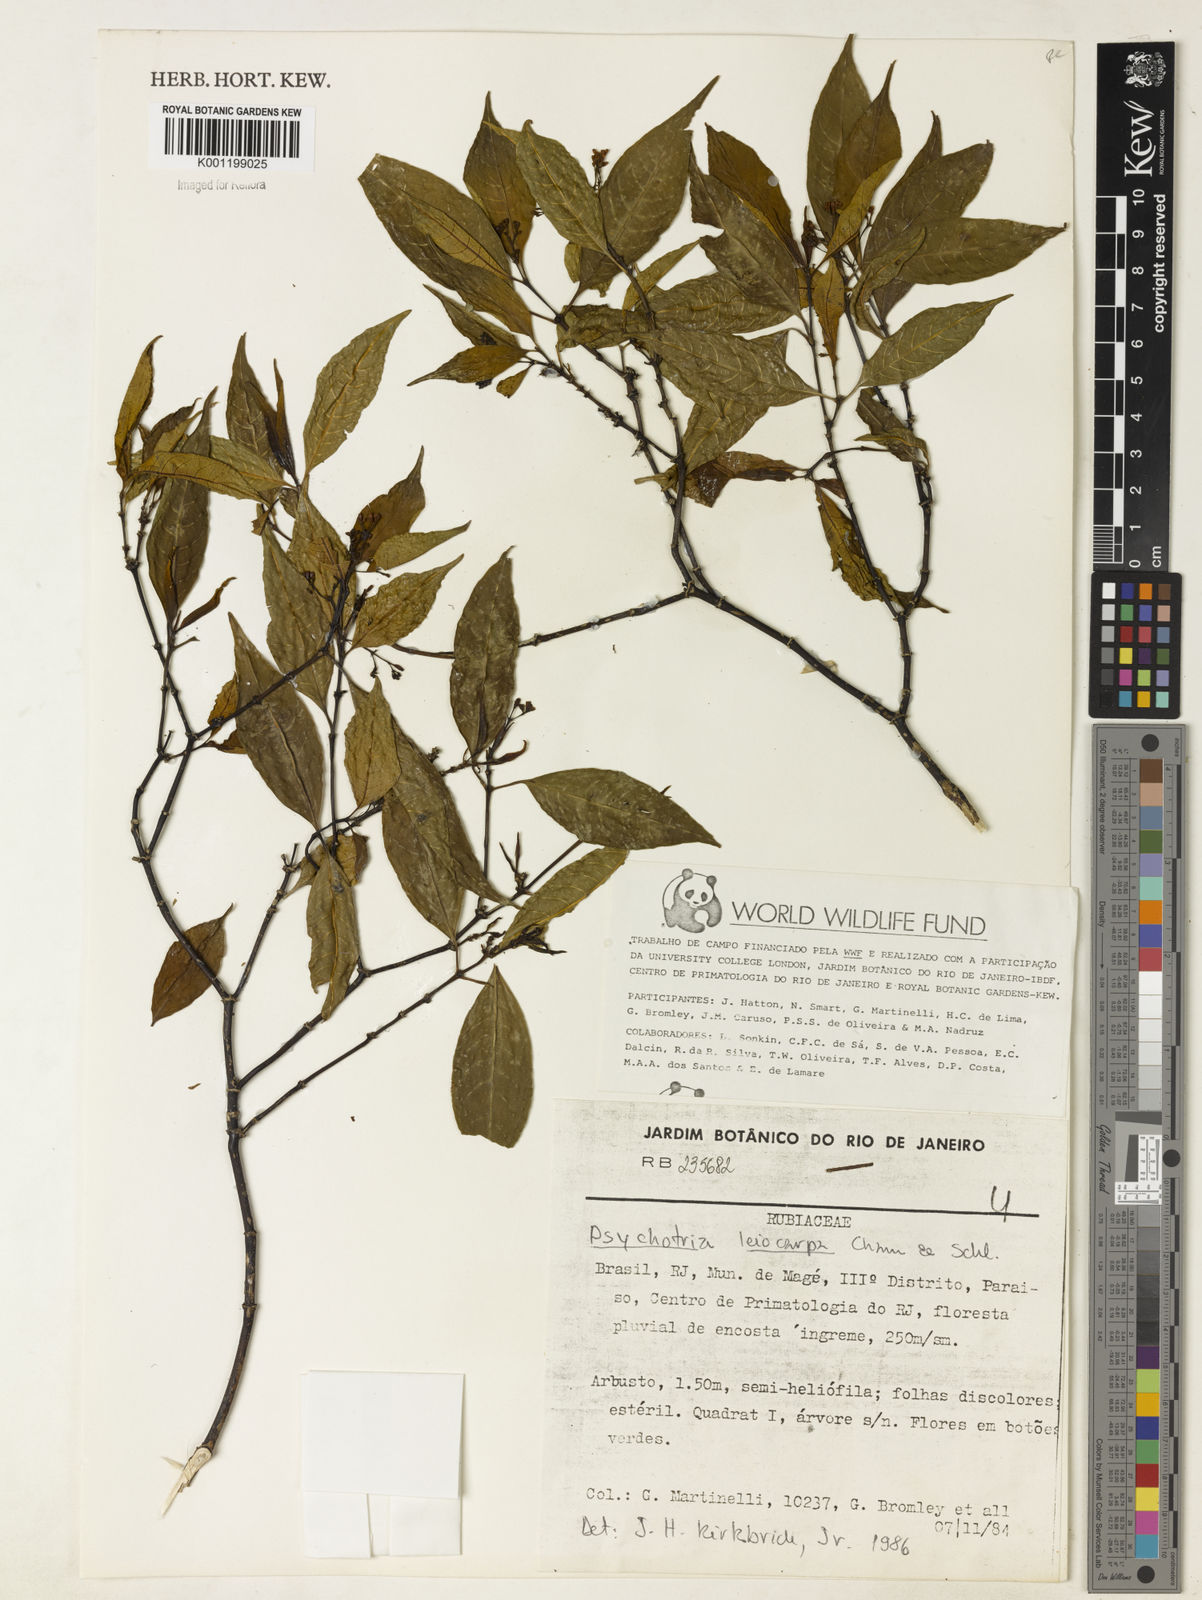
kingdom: Plantae
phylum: Tracheophyta
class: Magnoliopsida
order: Gentianales
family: Rubiaceae
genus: Psychotria
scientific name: Psychotria leiocarpa
